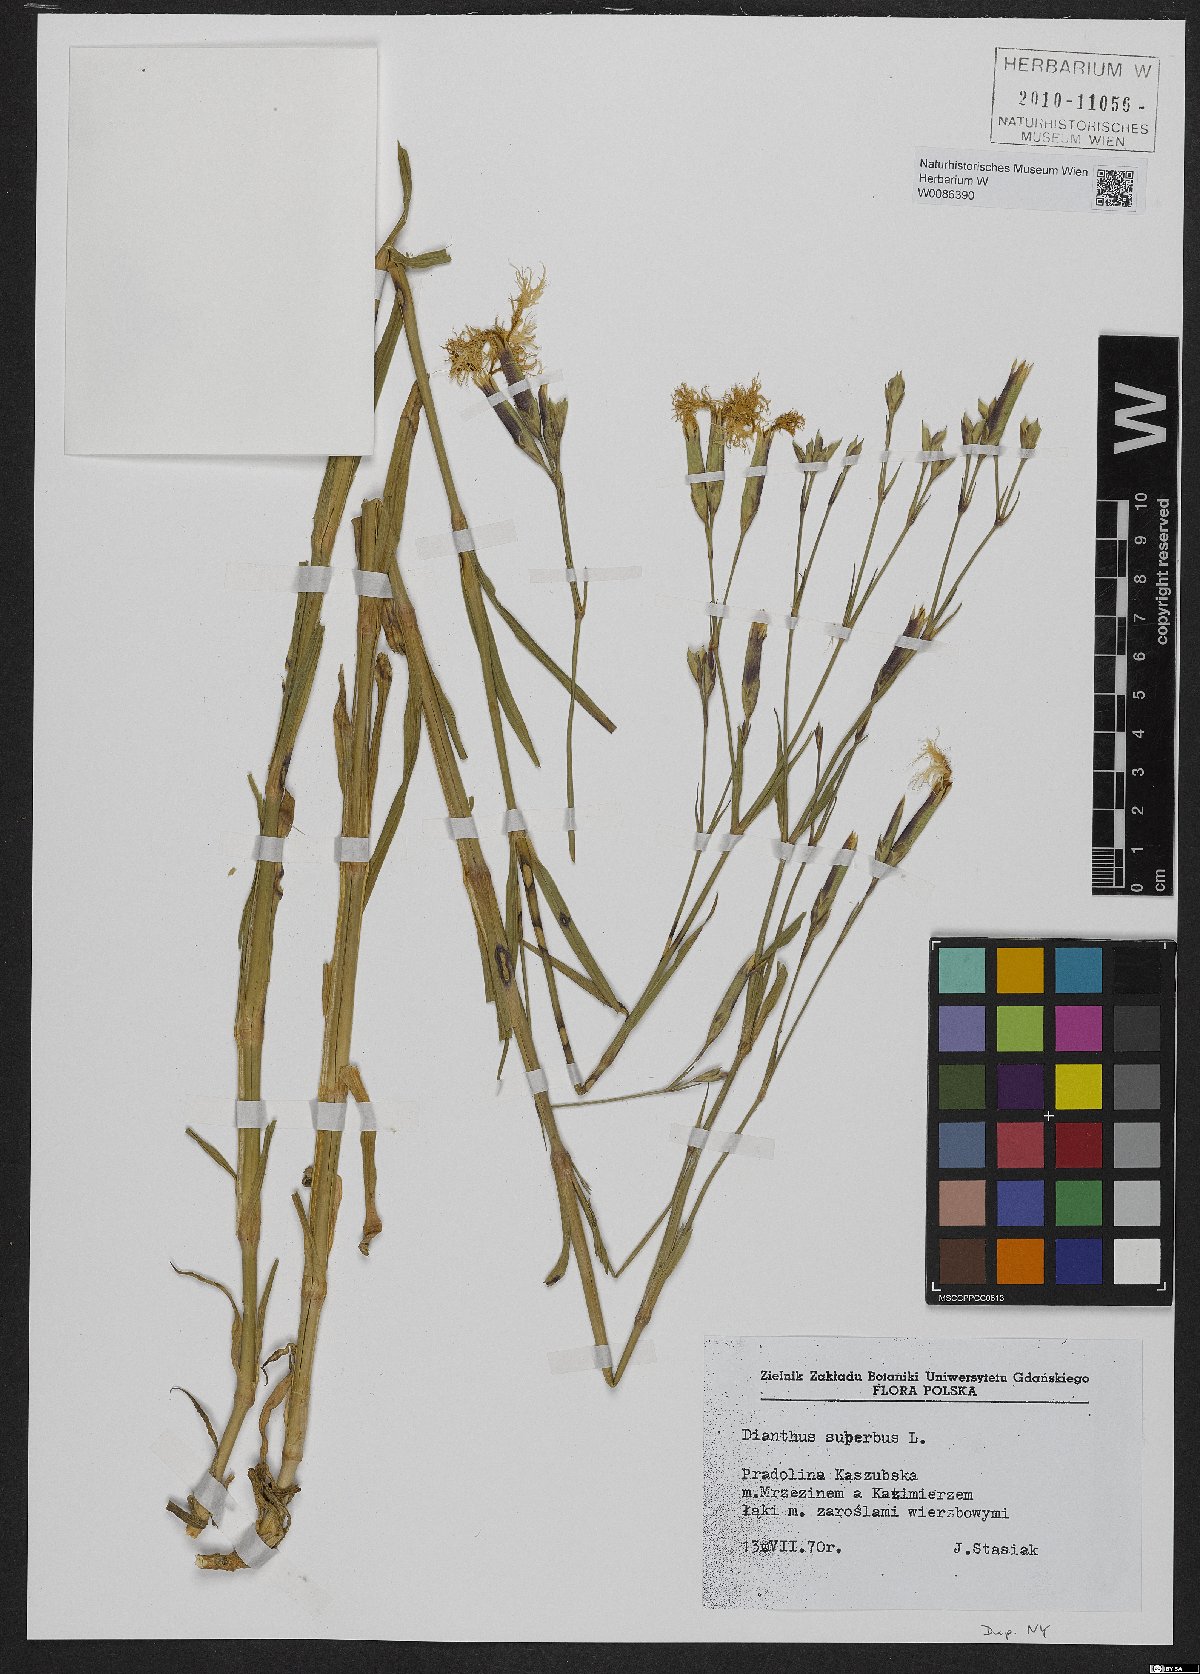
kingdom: Plantae
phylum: Tracheophyta
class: Magnoliopsida
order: Caryophyllales
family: Caryophyllaceae
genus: Dianthus
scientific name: Dianthus superbus
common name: Fringed pink
